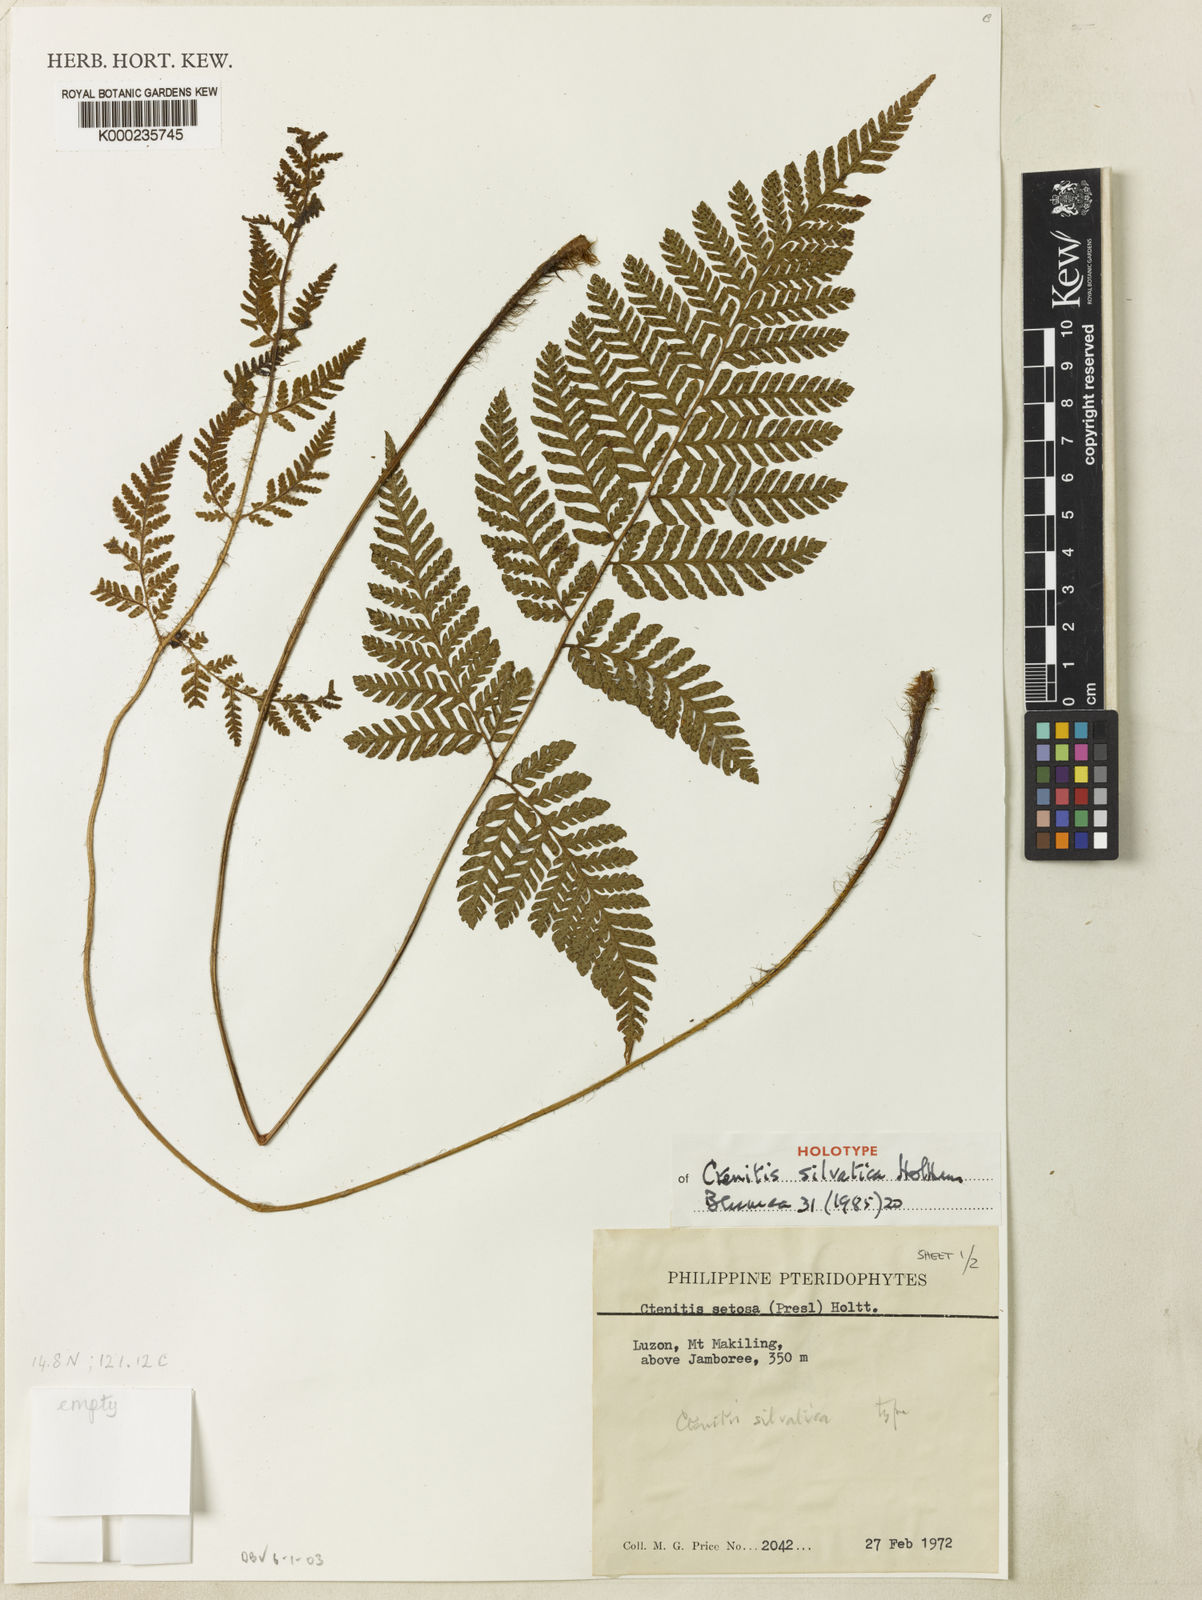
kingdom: Plantae
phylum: Tracheophyta
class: Polypodiopsida
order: Polypodiales
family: Dryopteridaceae
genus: Ctenitis
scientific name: Ctenitis silvatica
